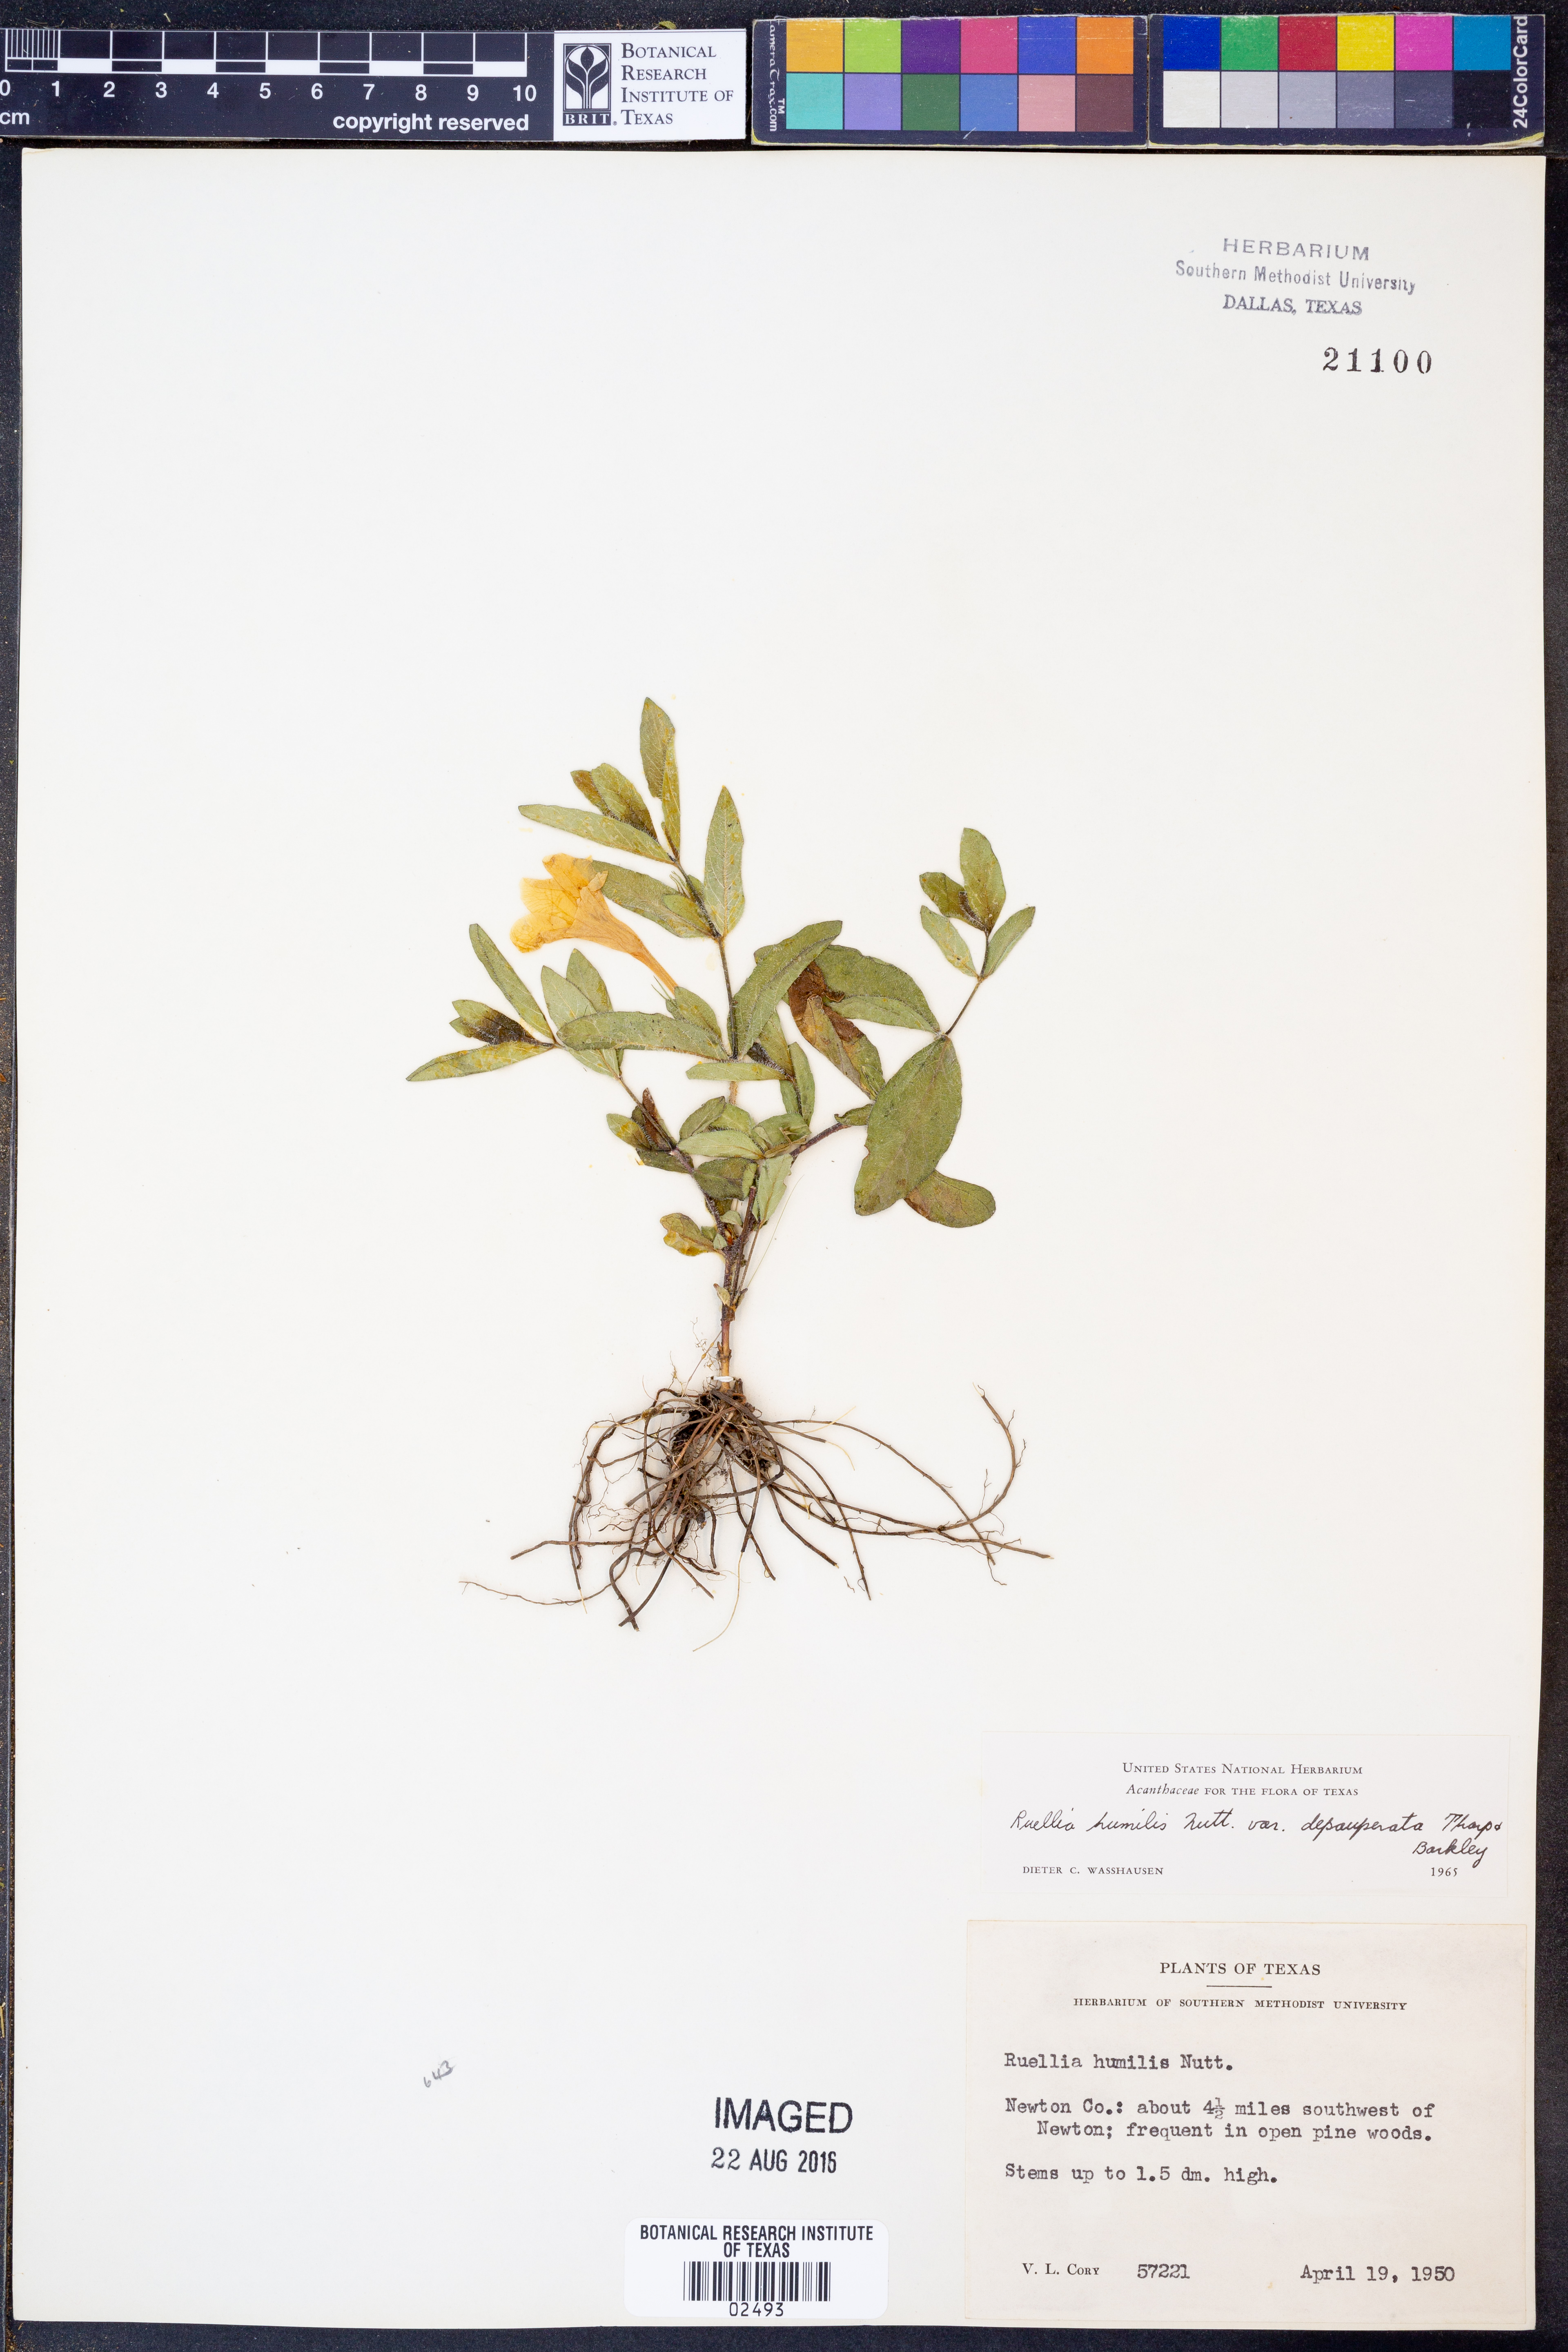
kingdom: Plantae
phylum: Tracheophyta
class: Magnoliopsida
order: Lamiales
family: Acanthaceae
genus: Ruellia
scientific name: Ruellia humilis
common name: Fringe-leaf ruellia
